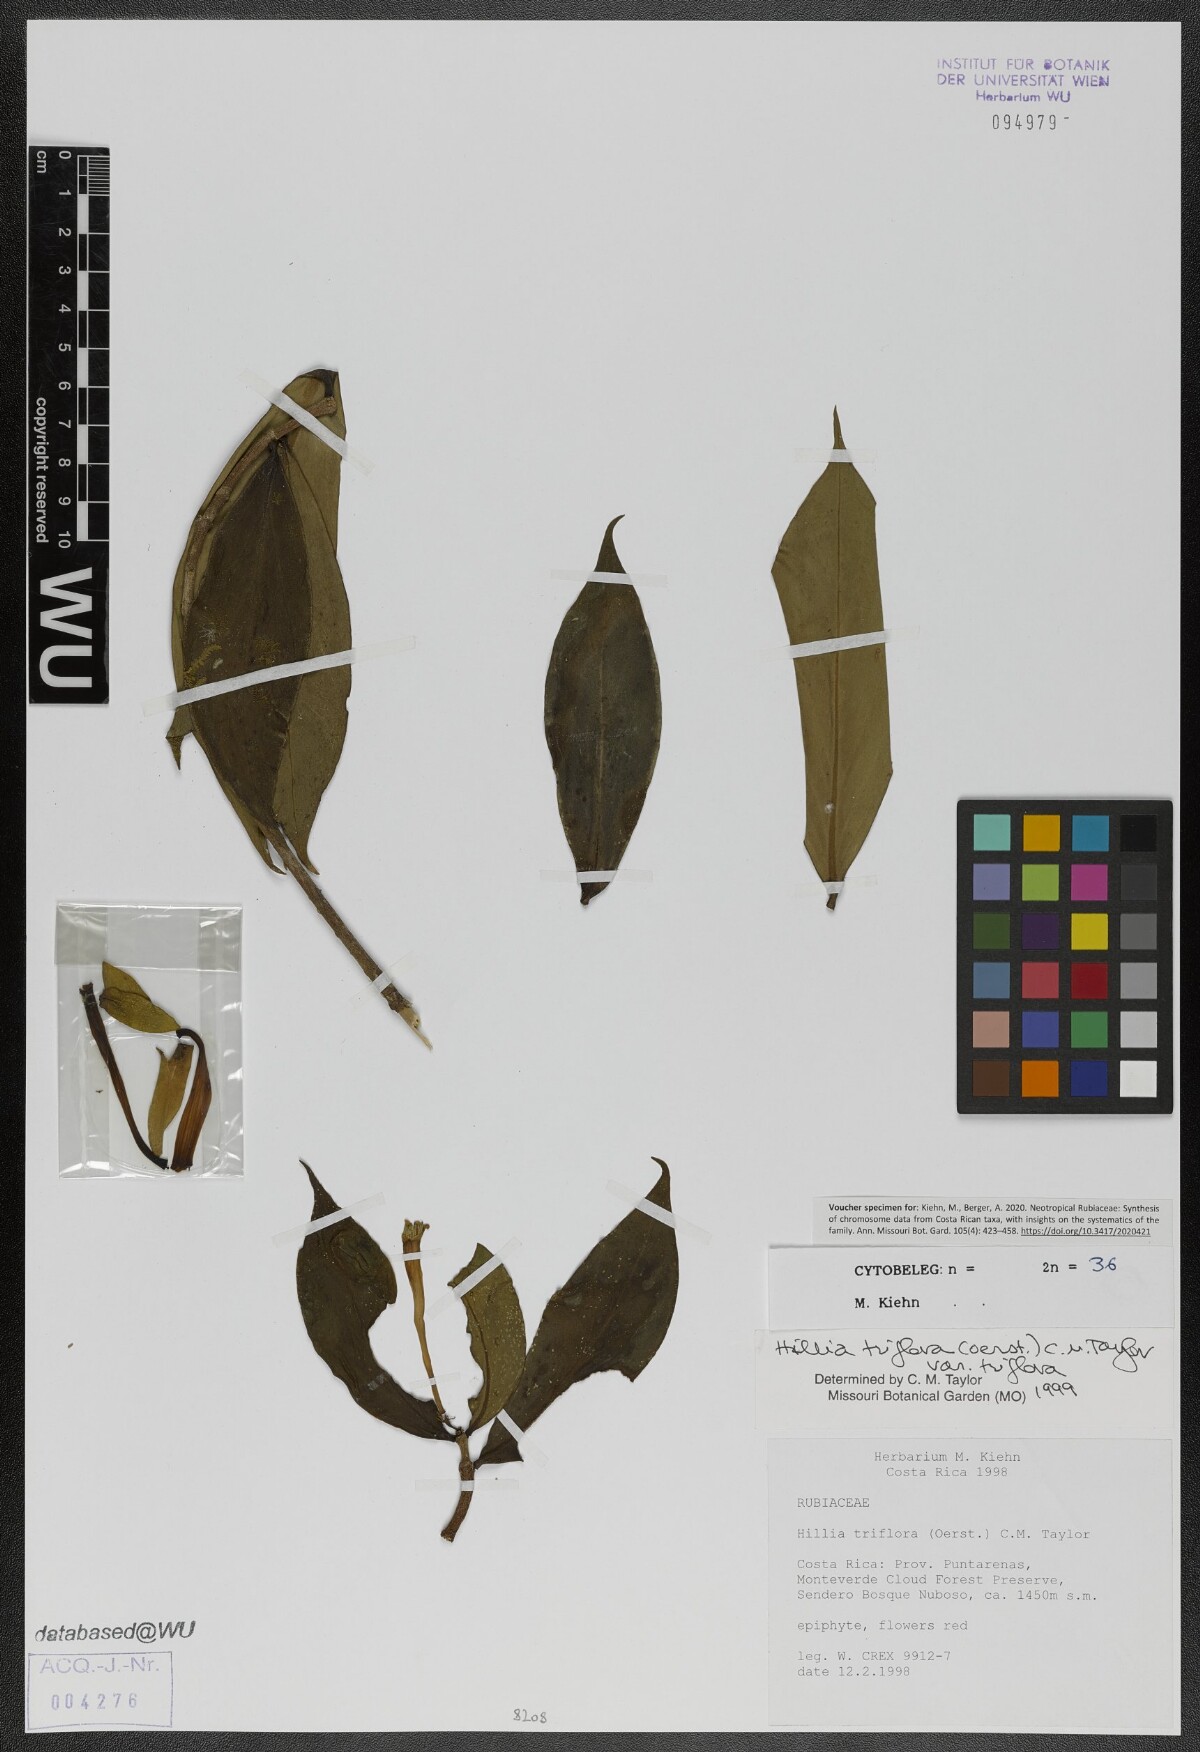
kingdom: Plantae
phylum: Tracheophyta
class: Magnoliopsida
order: Gentianales
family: Rubiaceae
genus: Hillia
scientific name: Hillia triflora
